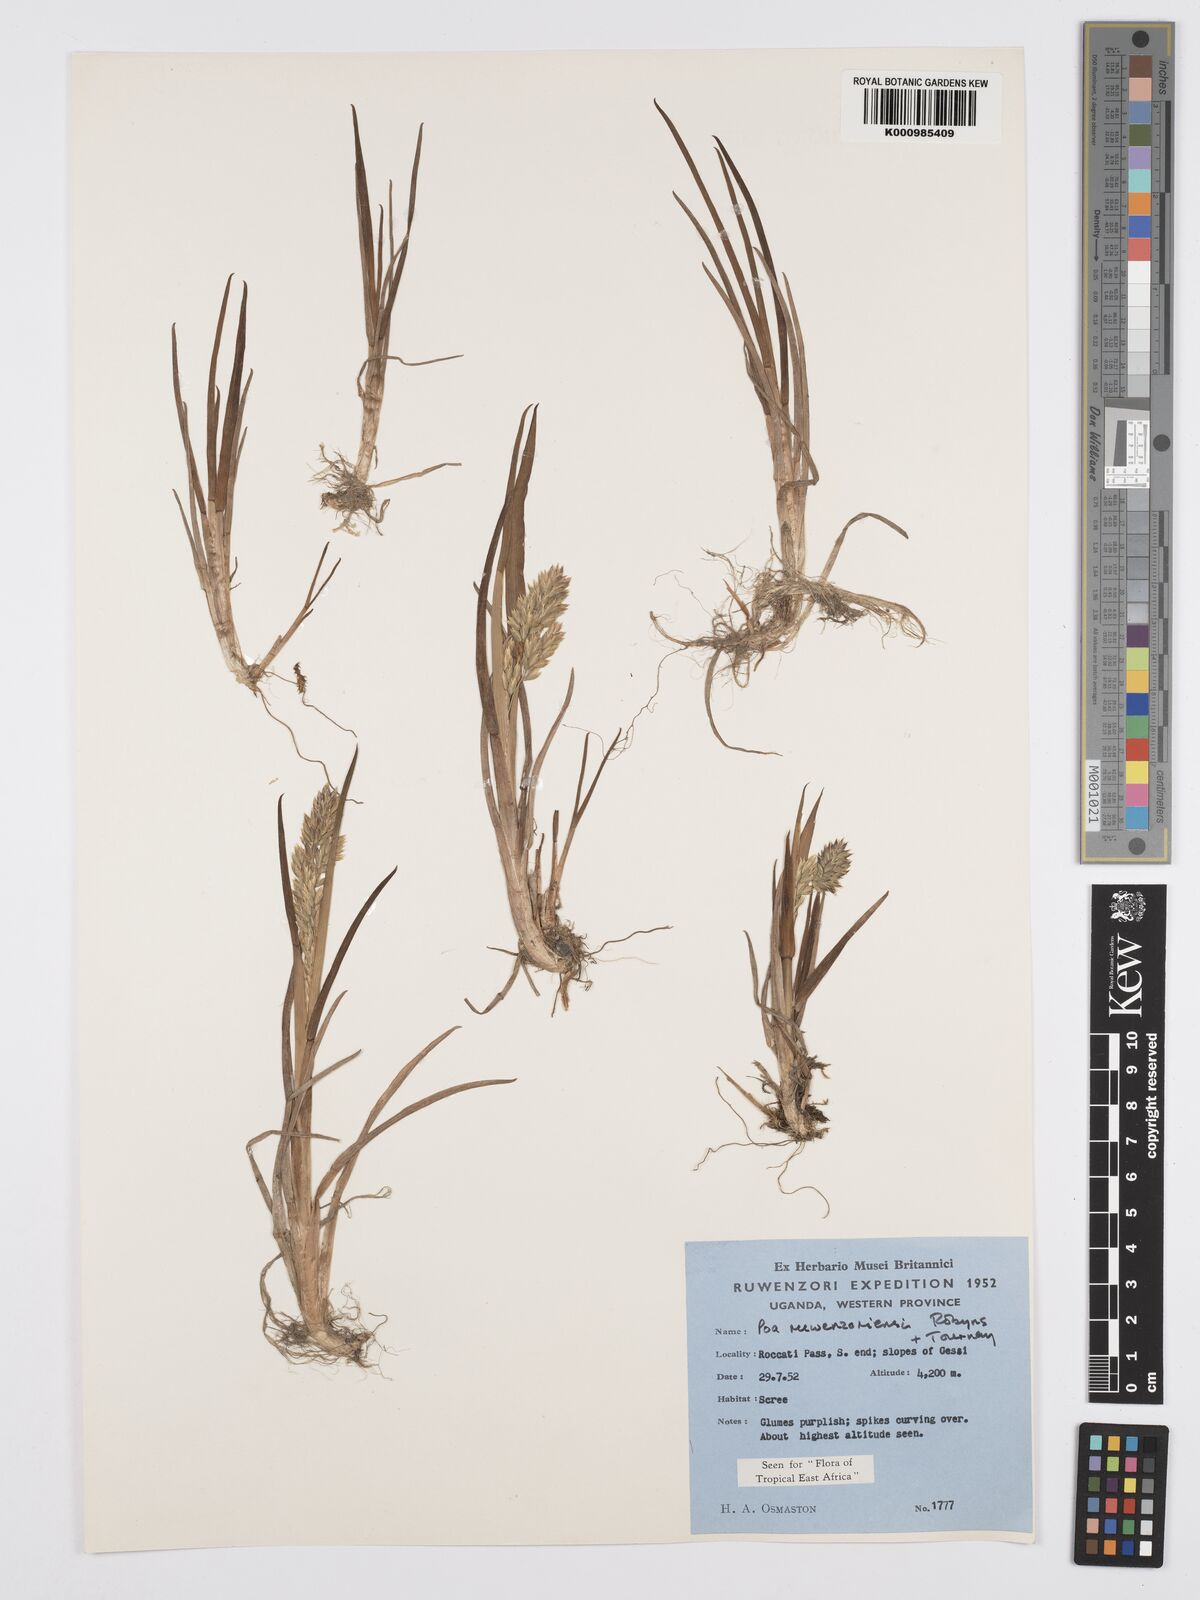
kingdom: Plantae
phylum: Tracheophyta
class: Liliopsida
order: Poales
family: Poaceae
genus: Poa
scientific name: Poa ruwenzoriensis
